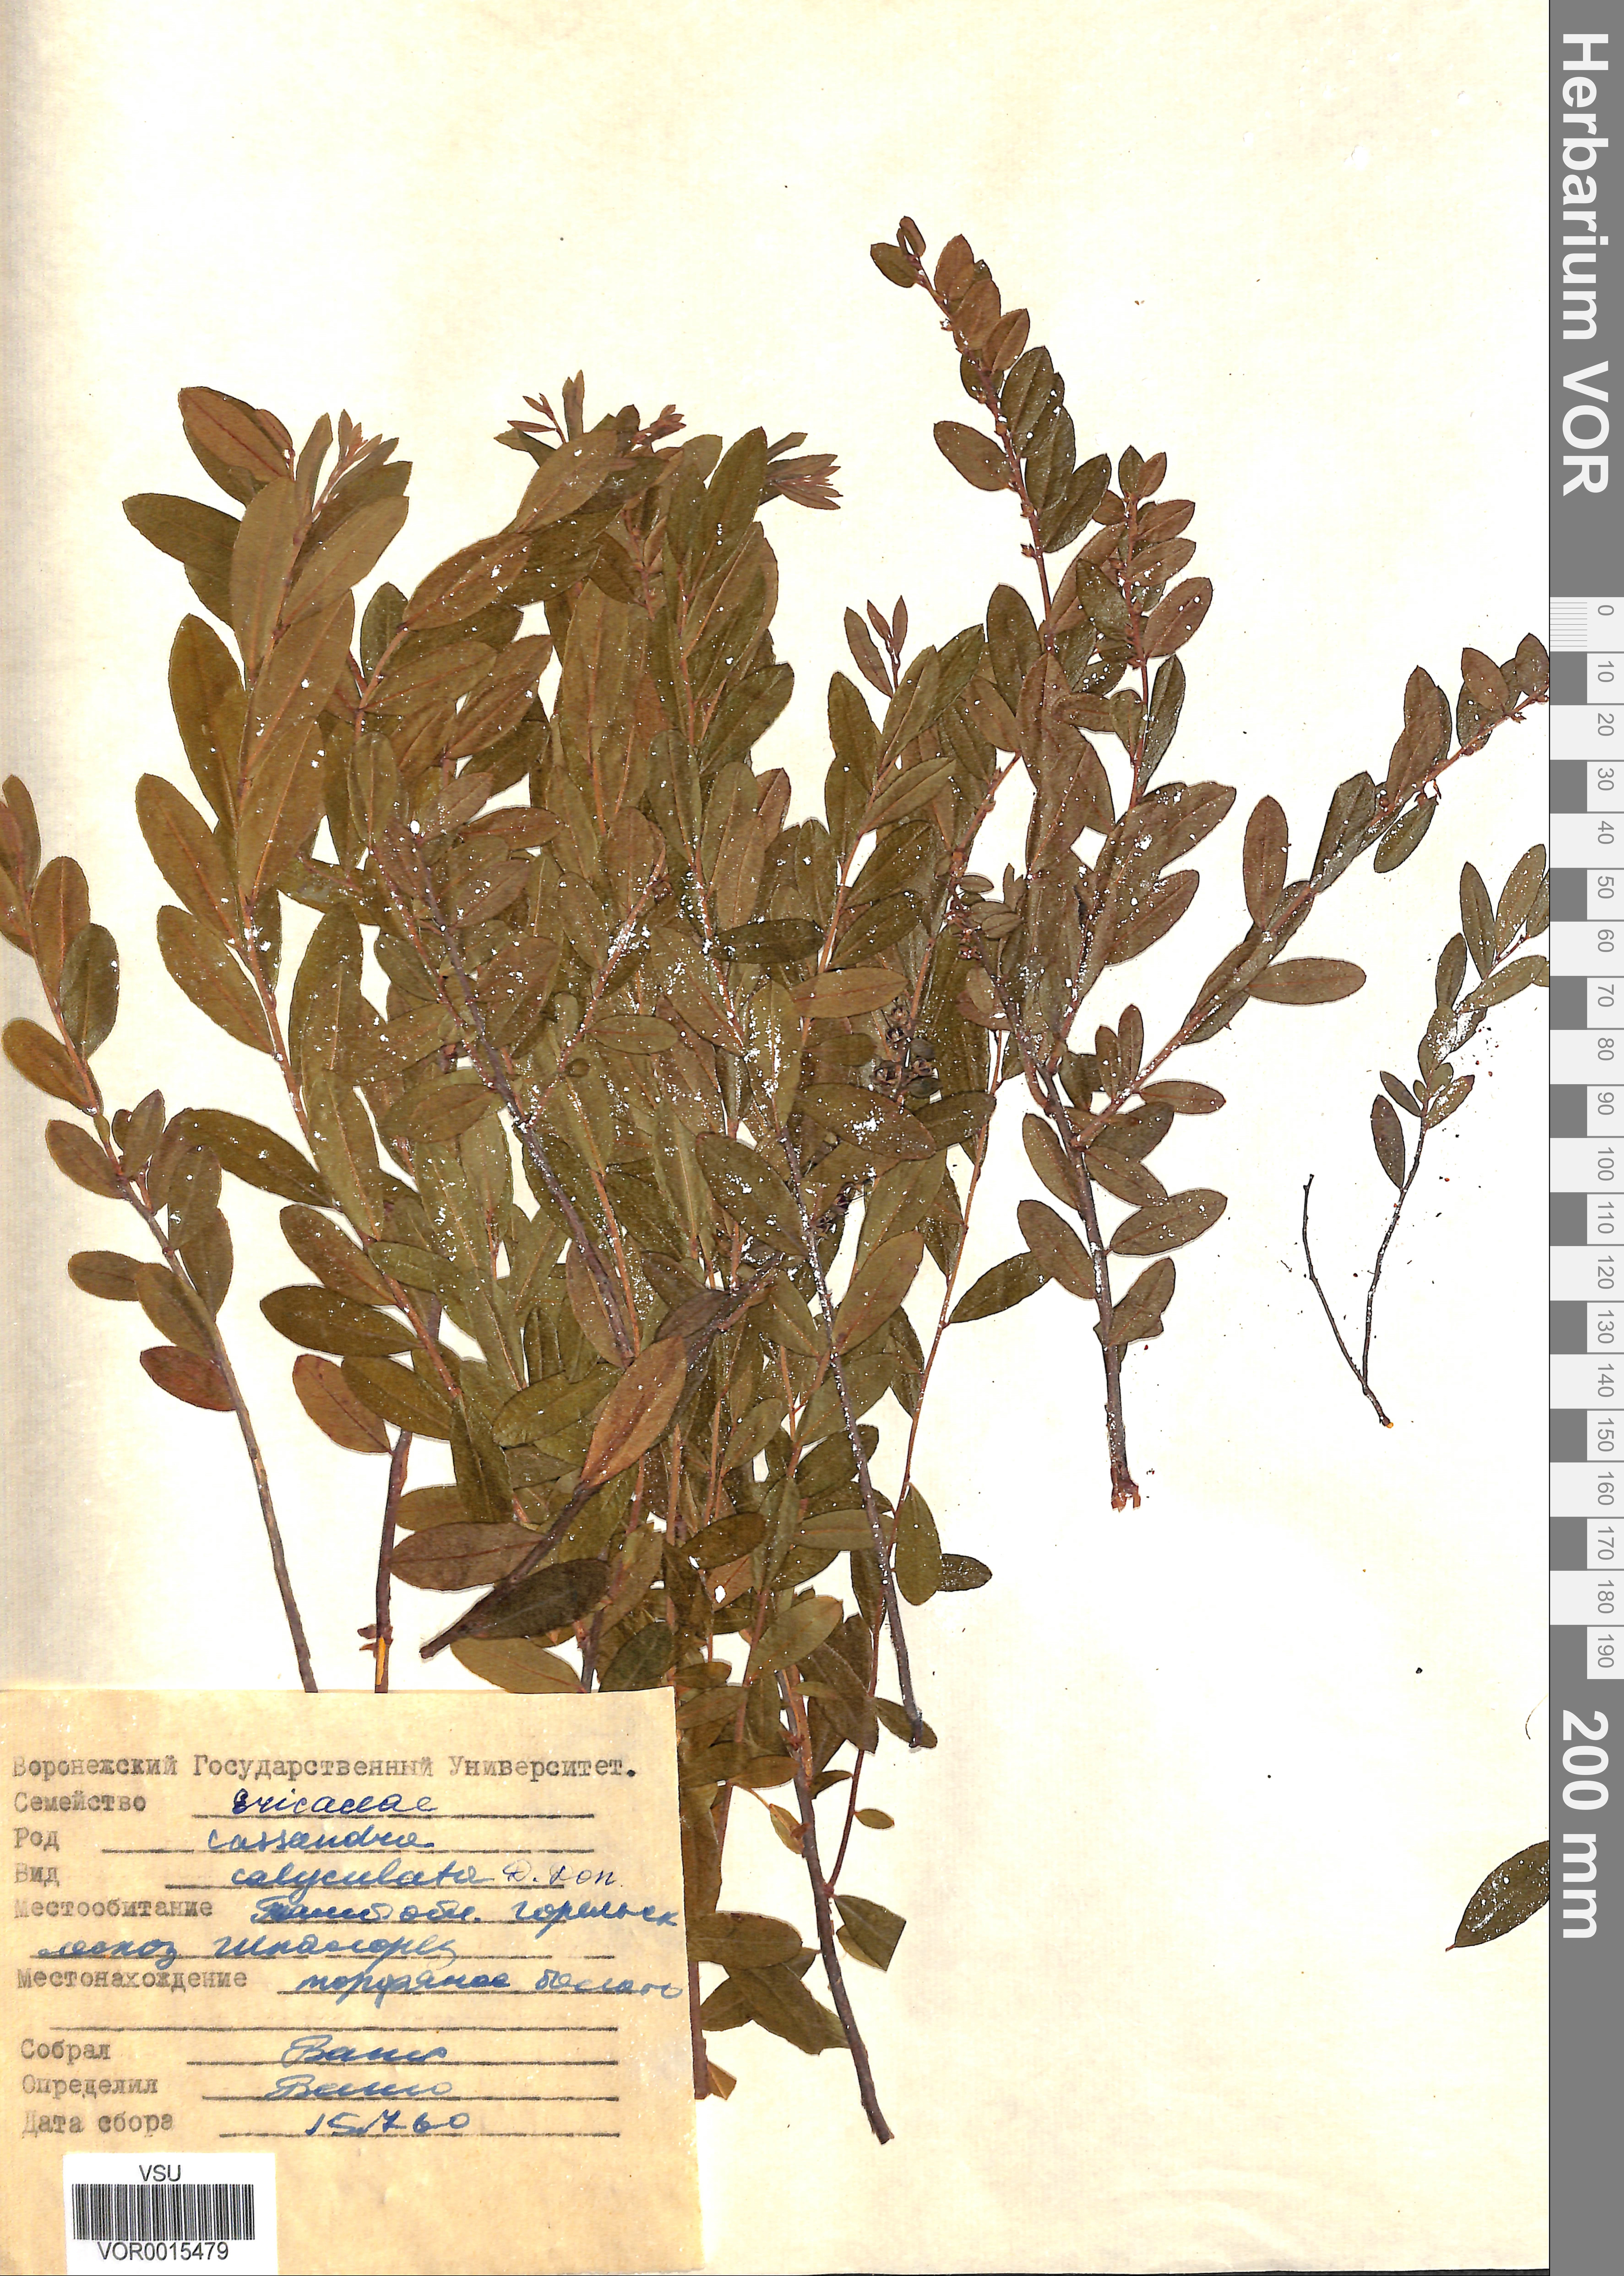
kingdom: Plantae
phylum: Tracheophyta
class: Magnoliopsida
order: Ericales
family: Ericaceae
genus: Chamaedaphne
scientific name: Chamaedaphne calyculata
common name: Leatherleaf
